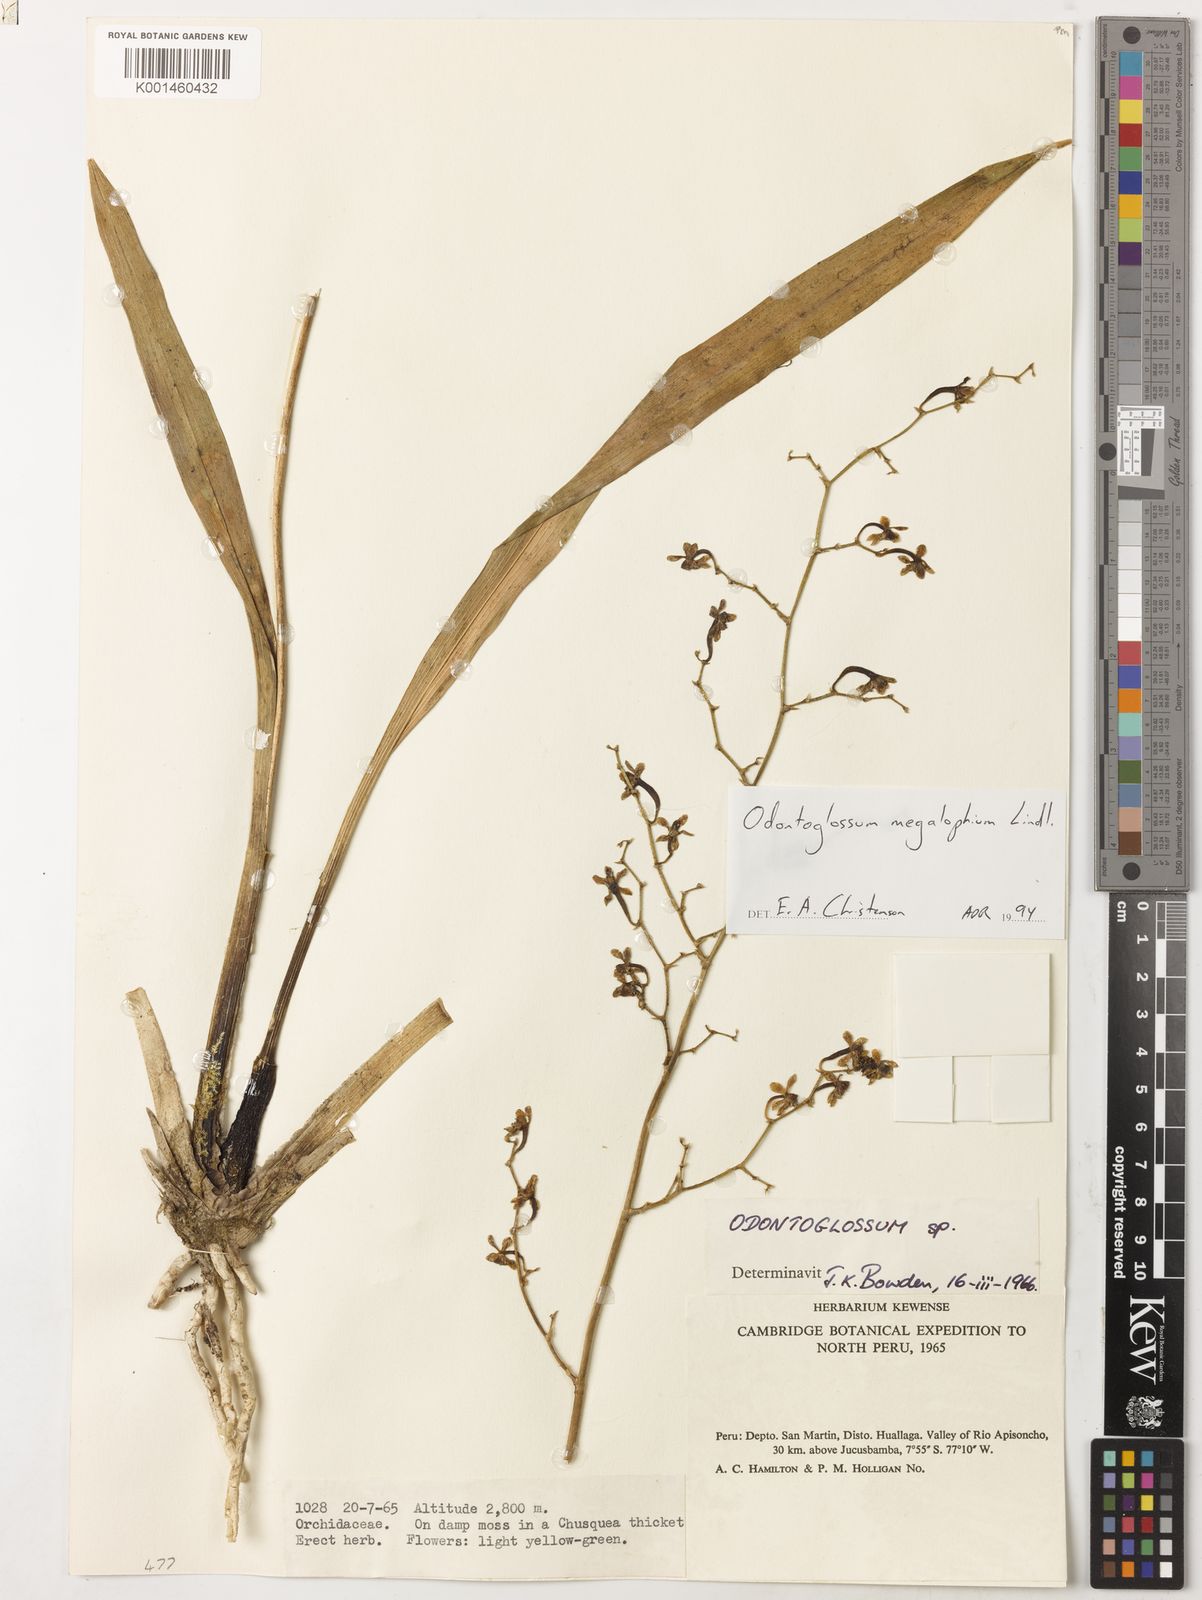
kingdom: Plantae
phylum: Tracheophyta
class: Liliopsida
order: Asparagales
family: Orchidaceae
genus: Cyrtochilum
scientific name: Cyrtochilum megalophium
